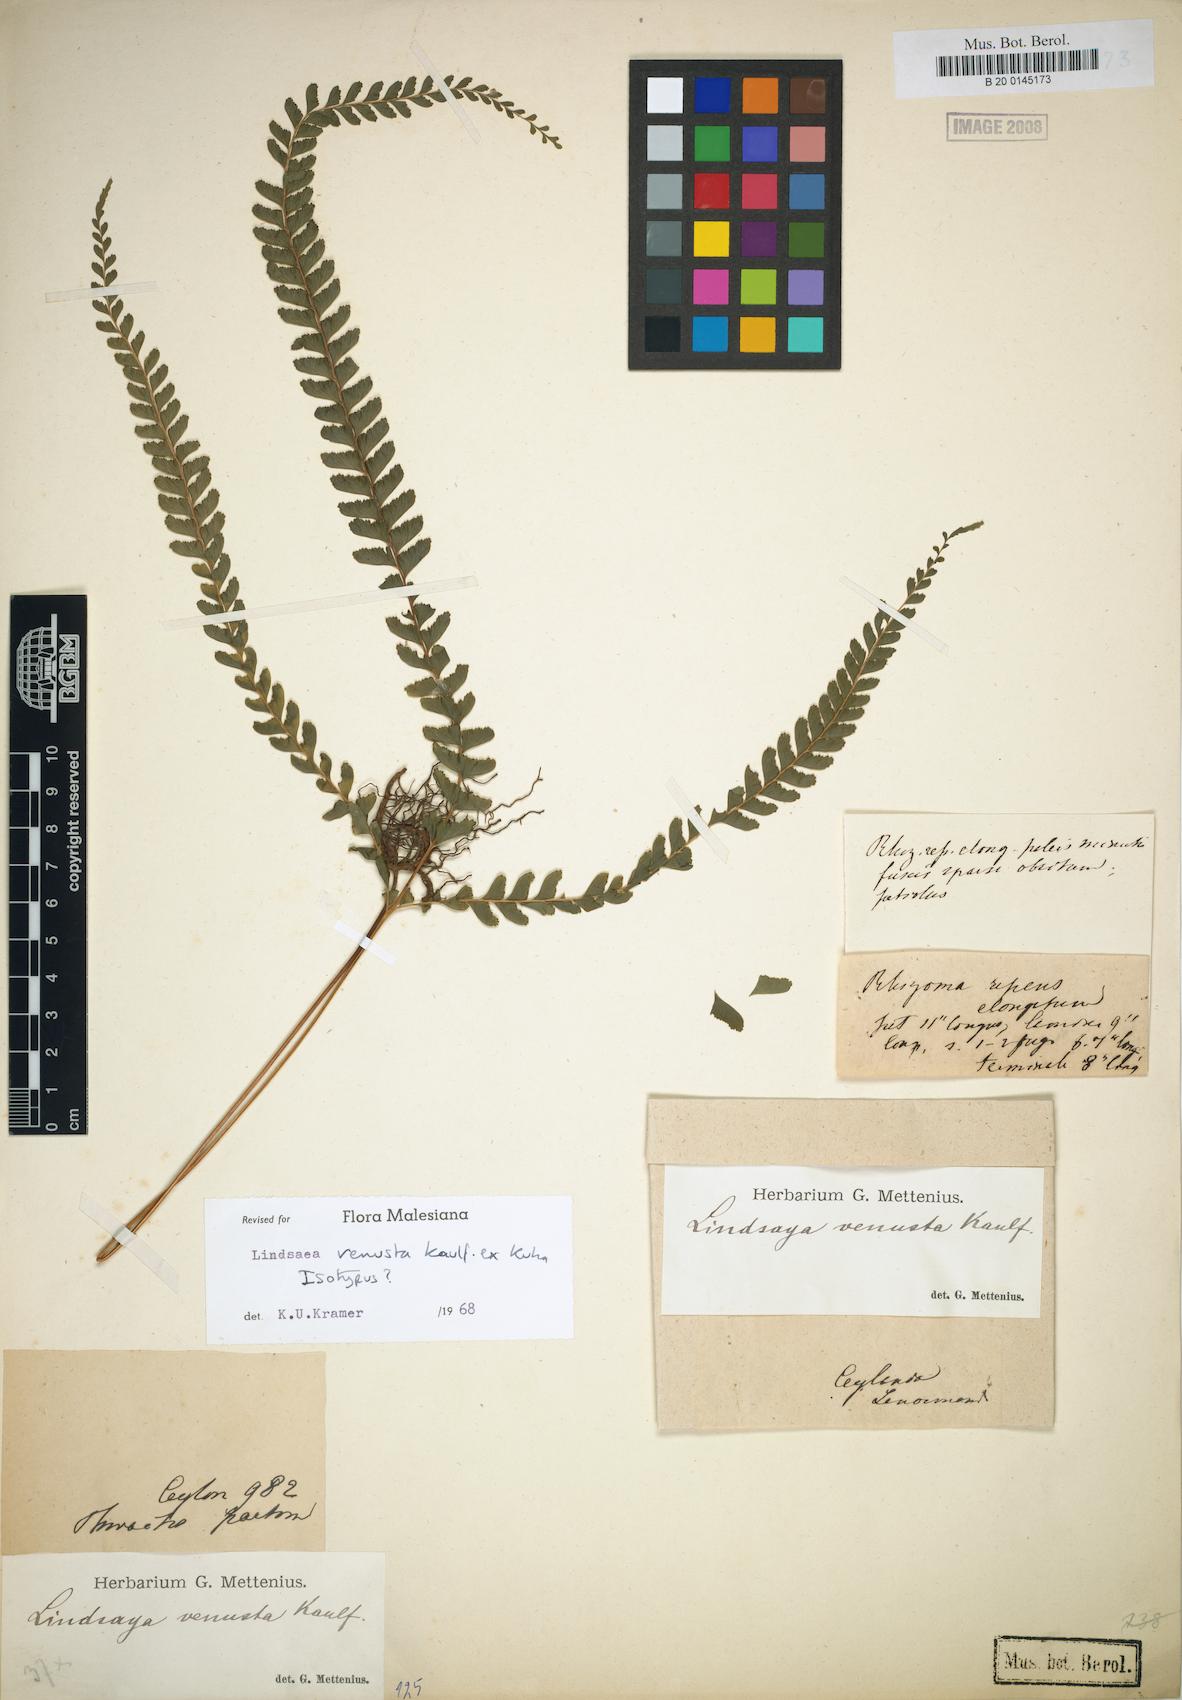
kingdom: Plantae
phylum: Tracheophyta
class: Polypodiopsida
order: Polypodiales
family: Lindsaeaceae
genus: Lindsaea
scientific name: Lindsaea venusta
